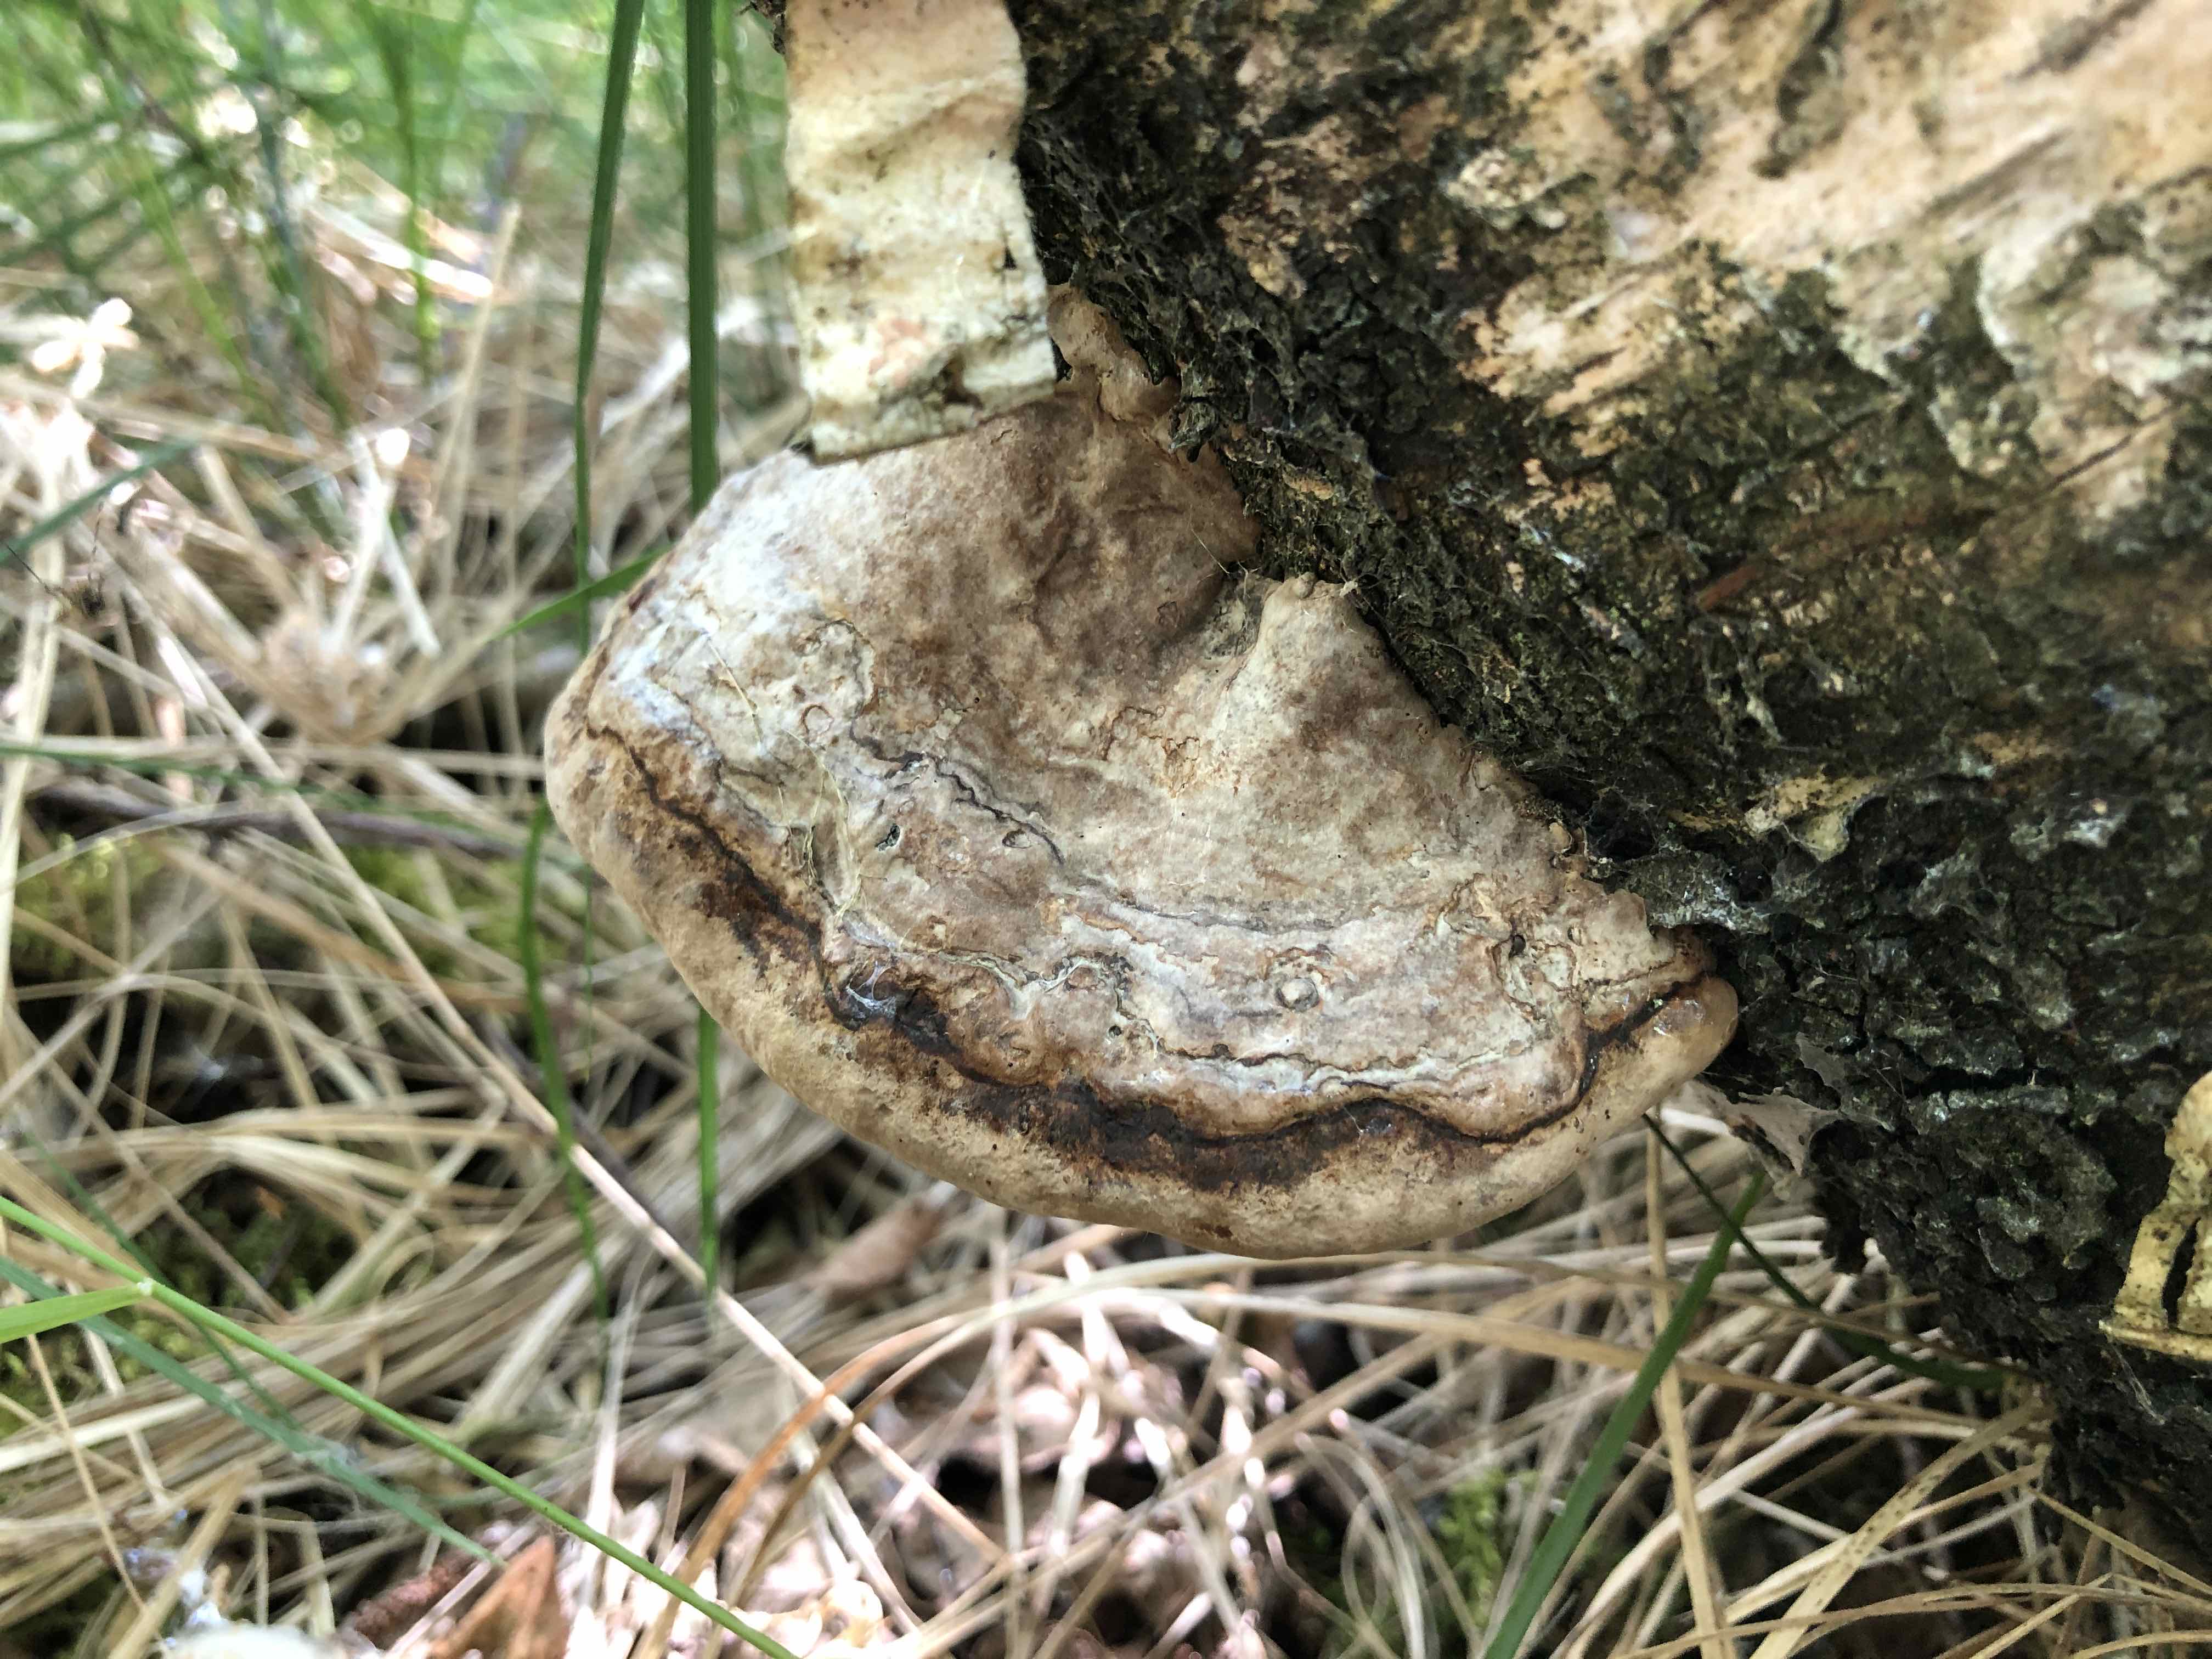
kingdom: Fungi
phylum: Basidiomycota
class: Agaricomycetes
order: Polyporales
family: Polyporaceae
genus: Fomes
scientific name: Fomes fomentarius
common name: tøndersvamp
